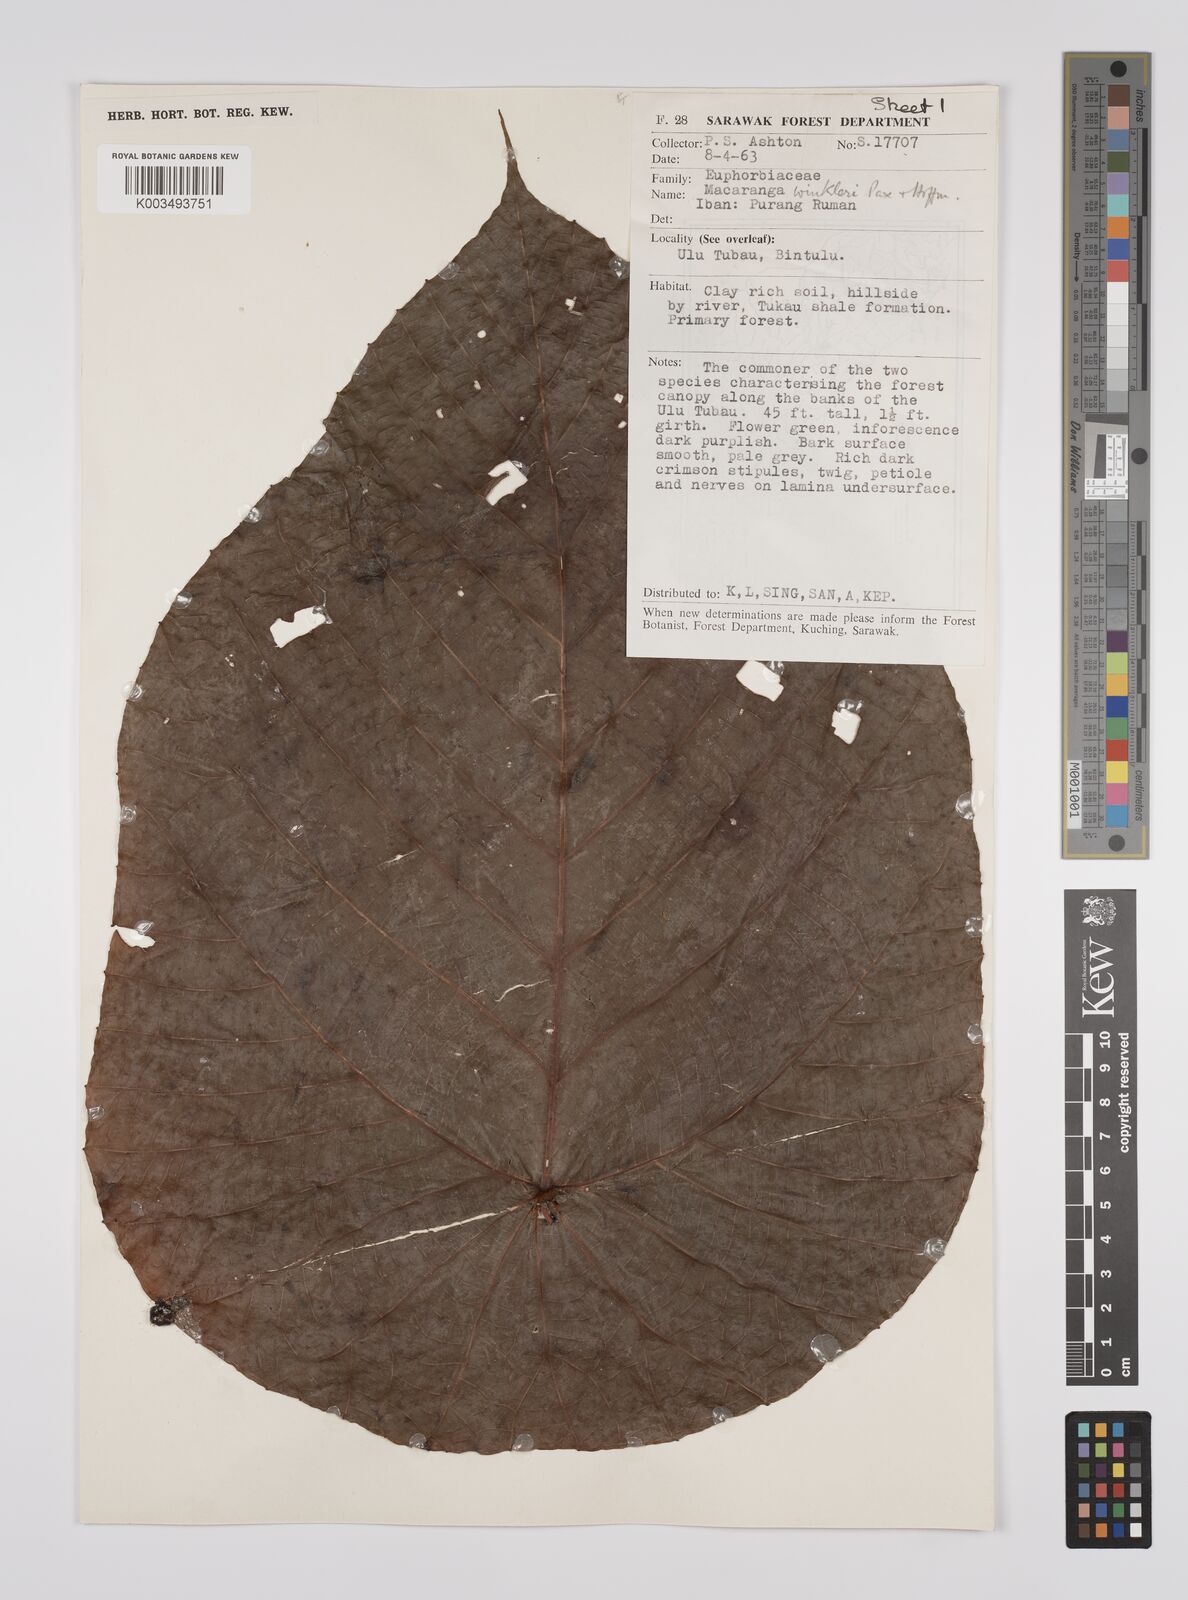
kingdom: Plantae
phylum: Tracheophyta
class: Magnoliopsida
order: Malpighiales
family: Euphorbiaceae
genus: Macaranga
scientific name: Macaranga winkleri
